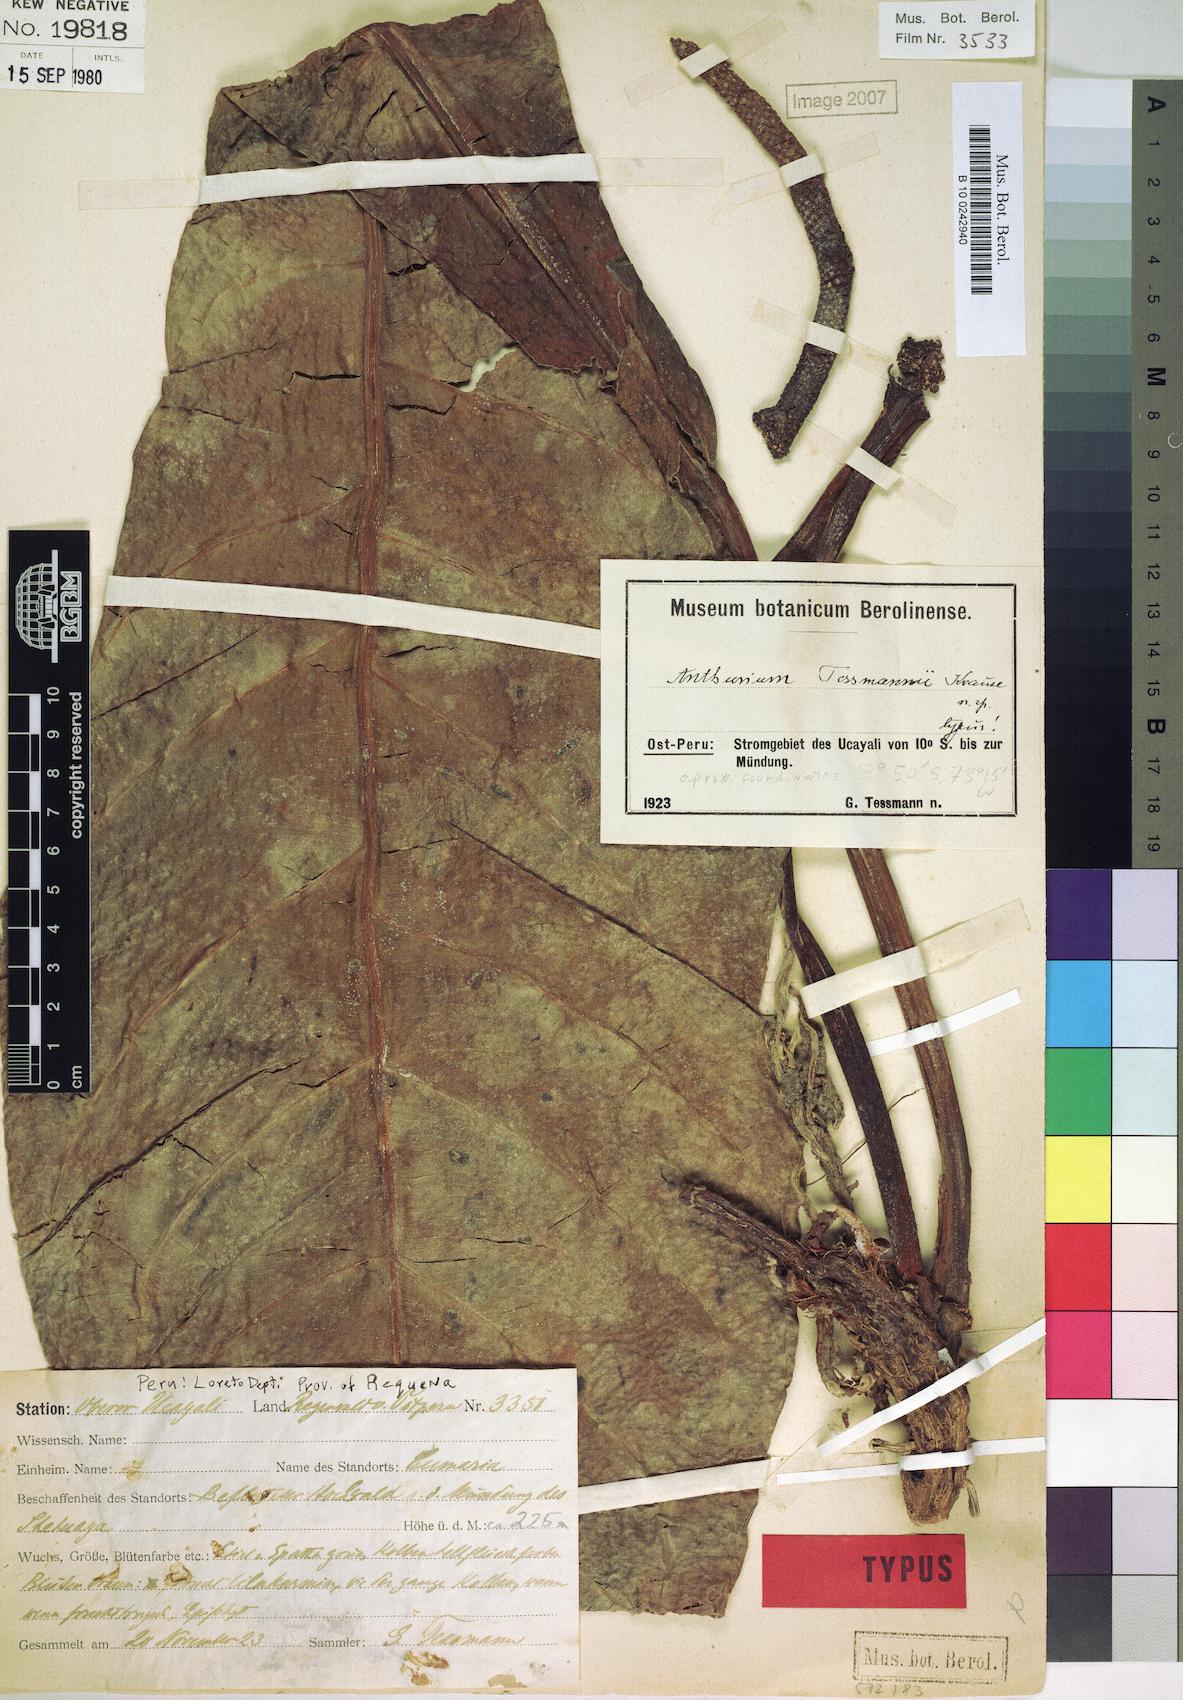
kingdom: Plantae
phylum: Tracheophyta
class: Liliopsida
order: Alismatales
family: Araceae
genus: Anthurium
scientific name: Anthurium uleanum
